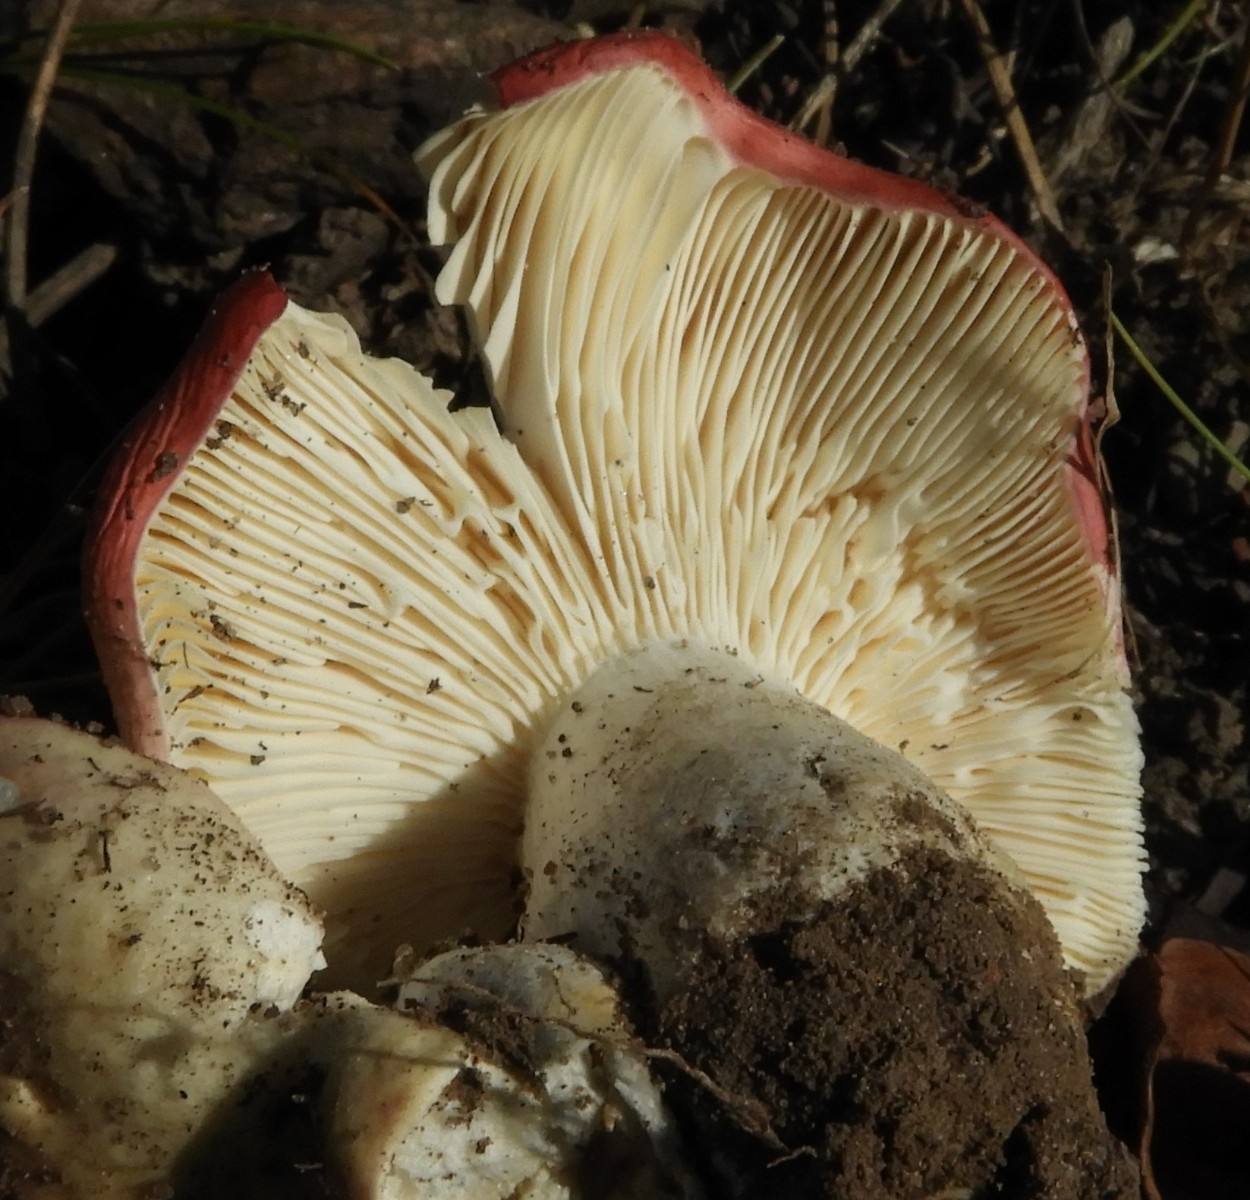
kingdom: Fungi
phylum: Basidiomycota
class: Agaricomycetes
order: Russulales
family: Russulaceae
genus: Russula
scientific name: Russula depallens
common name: falmende skørhat
